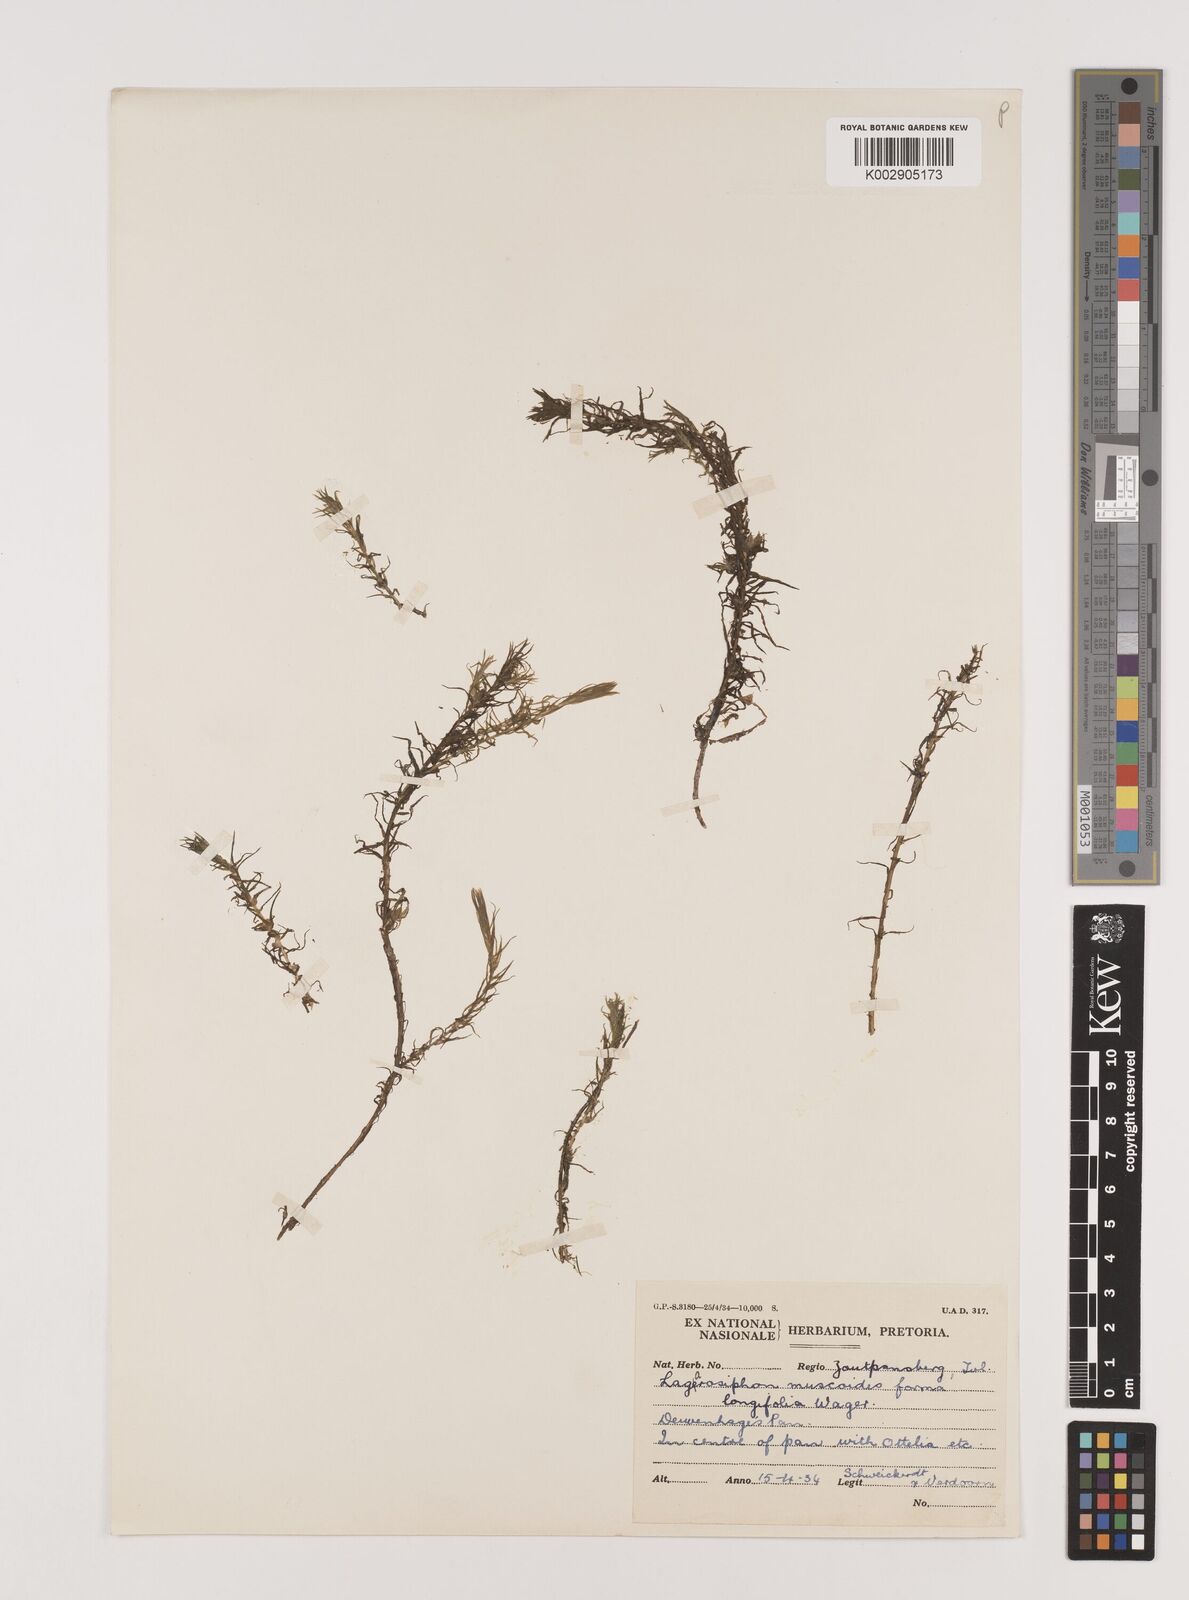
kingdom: Plantae
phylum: Tracheophyta
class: Liliopsida
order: Alismatales
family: Hydrocharitaceae
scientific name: Hydrocharitaceae
